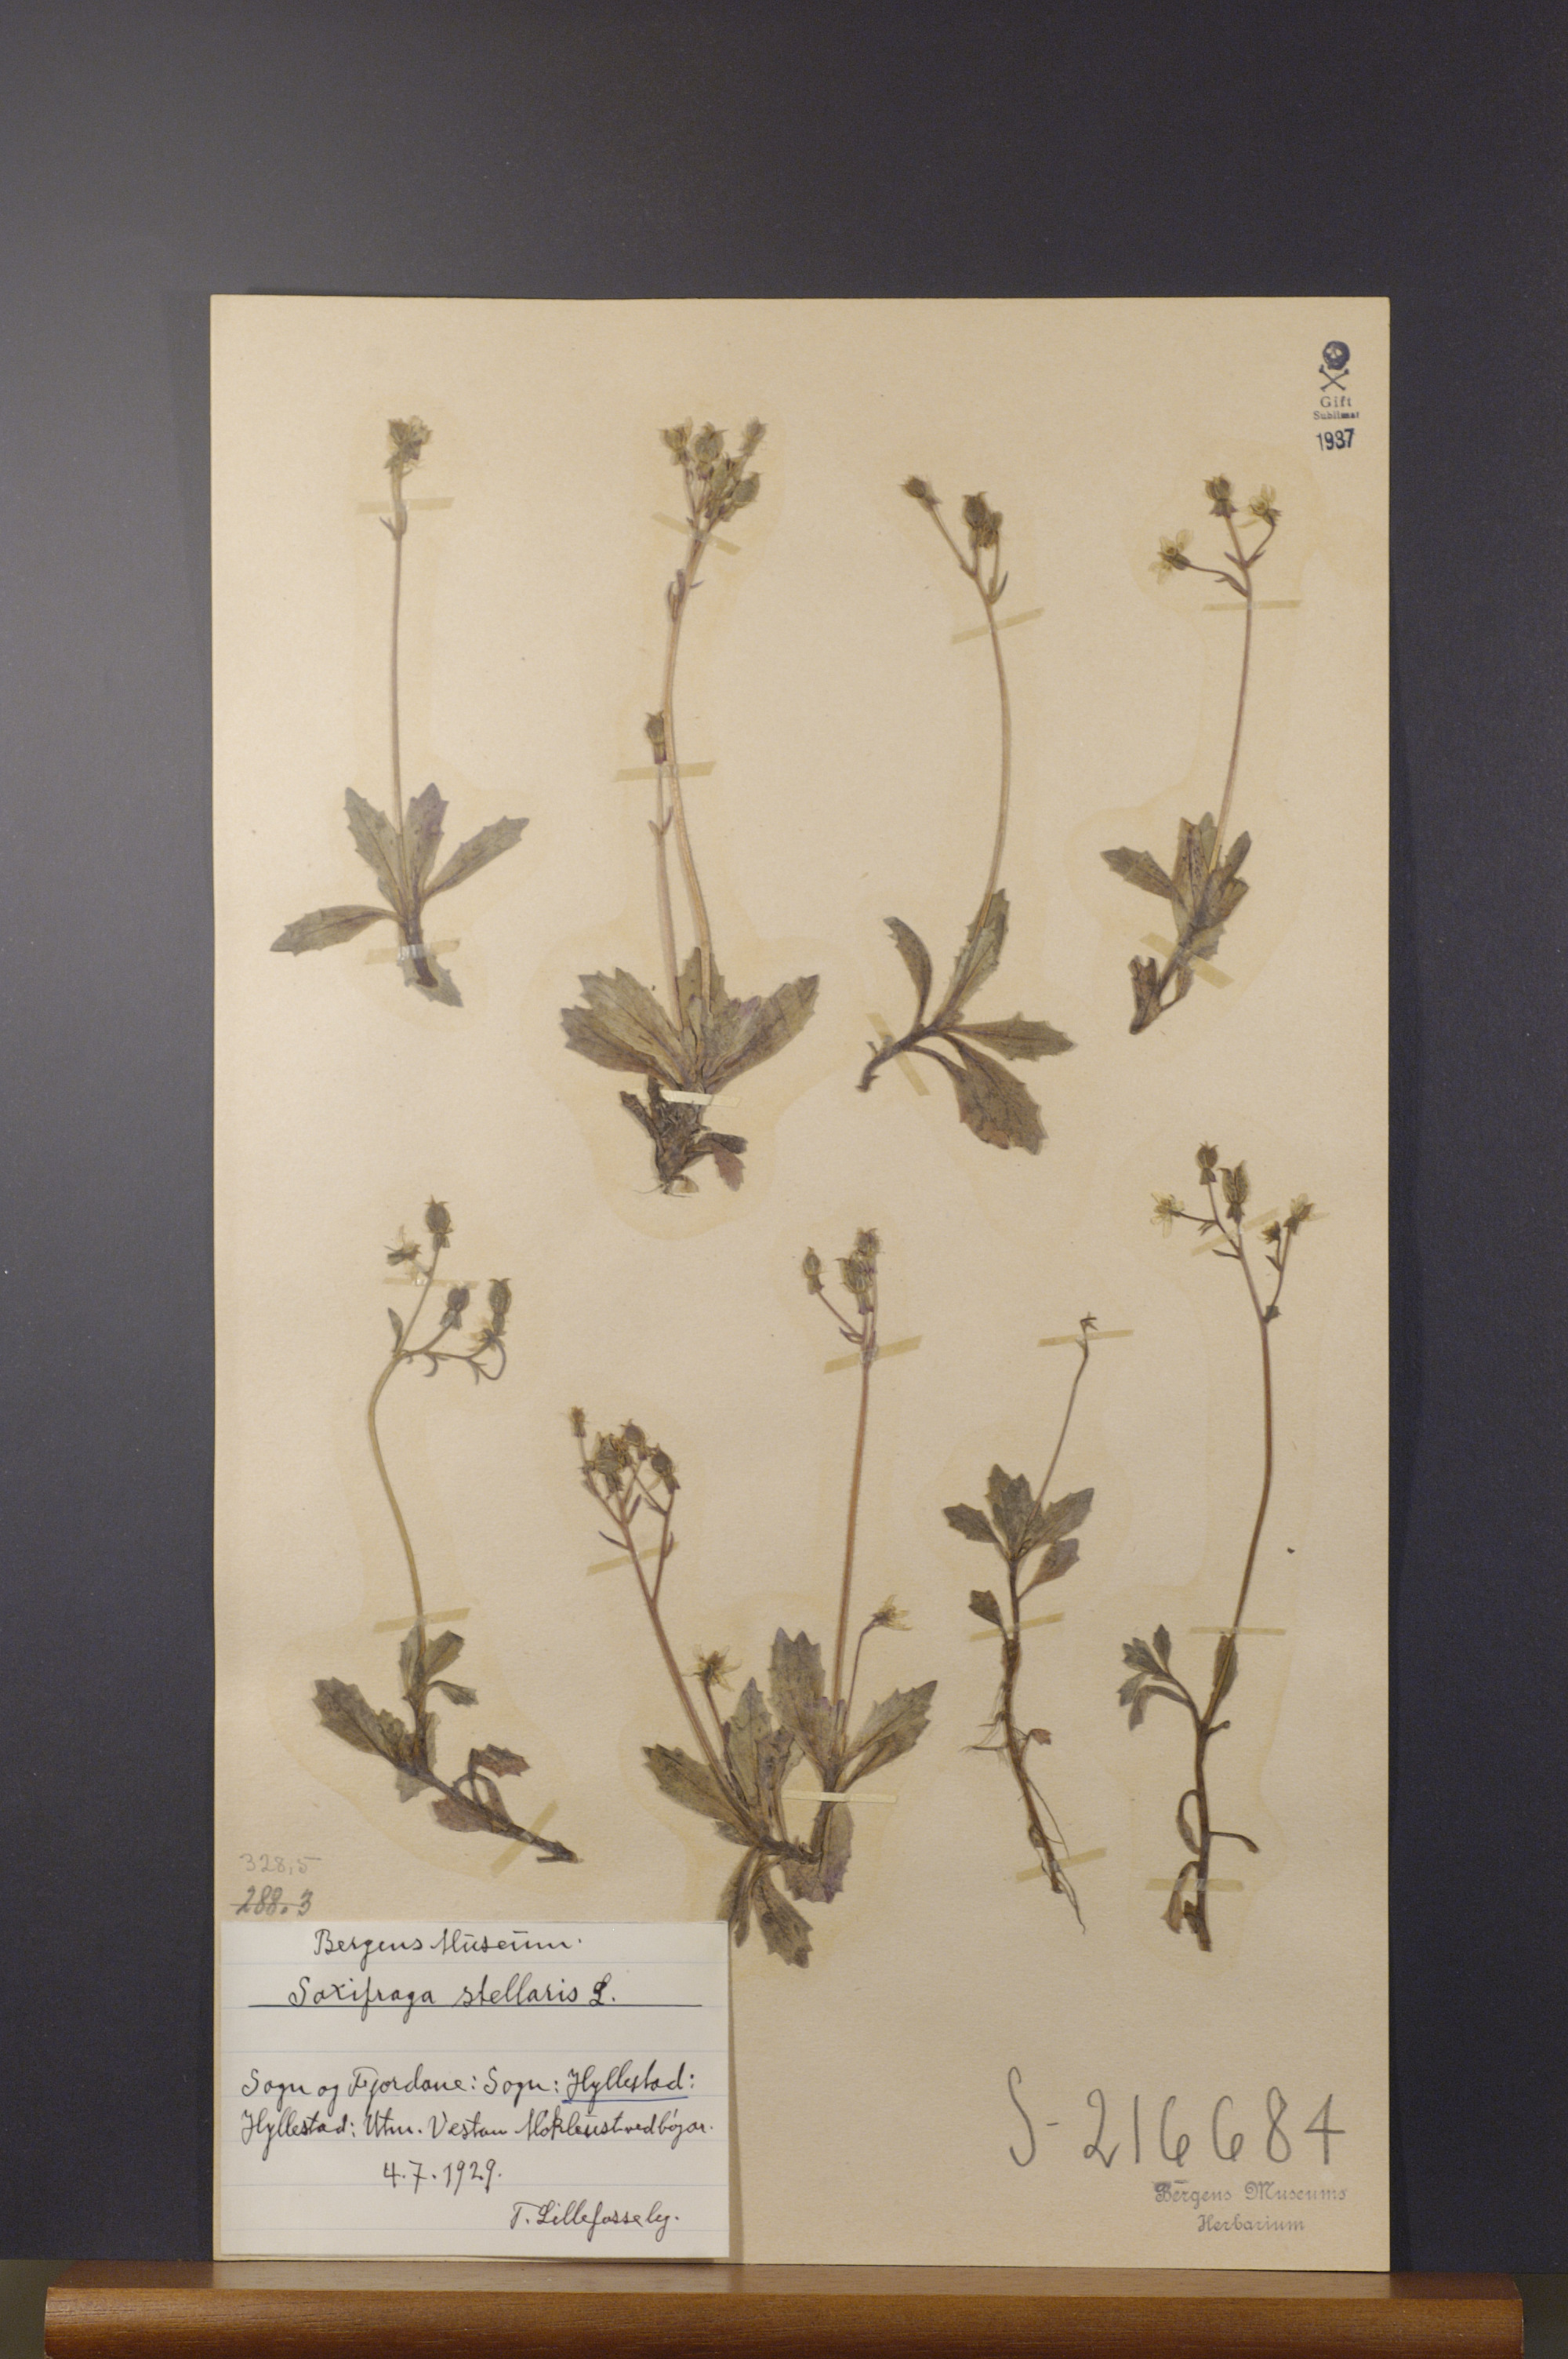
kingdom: Plantae
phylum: Tracheophyta
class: Magnoliopsida
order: Saxifragales
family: Saxifragaceae
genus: Micranthes
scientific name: Micranthes stellaris
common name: Starry saxifrage
